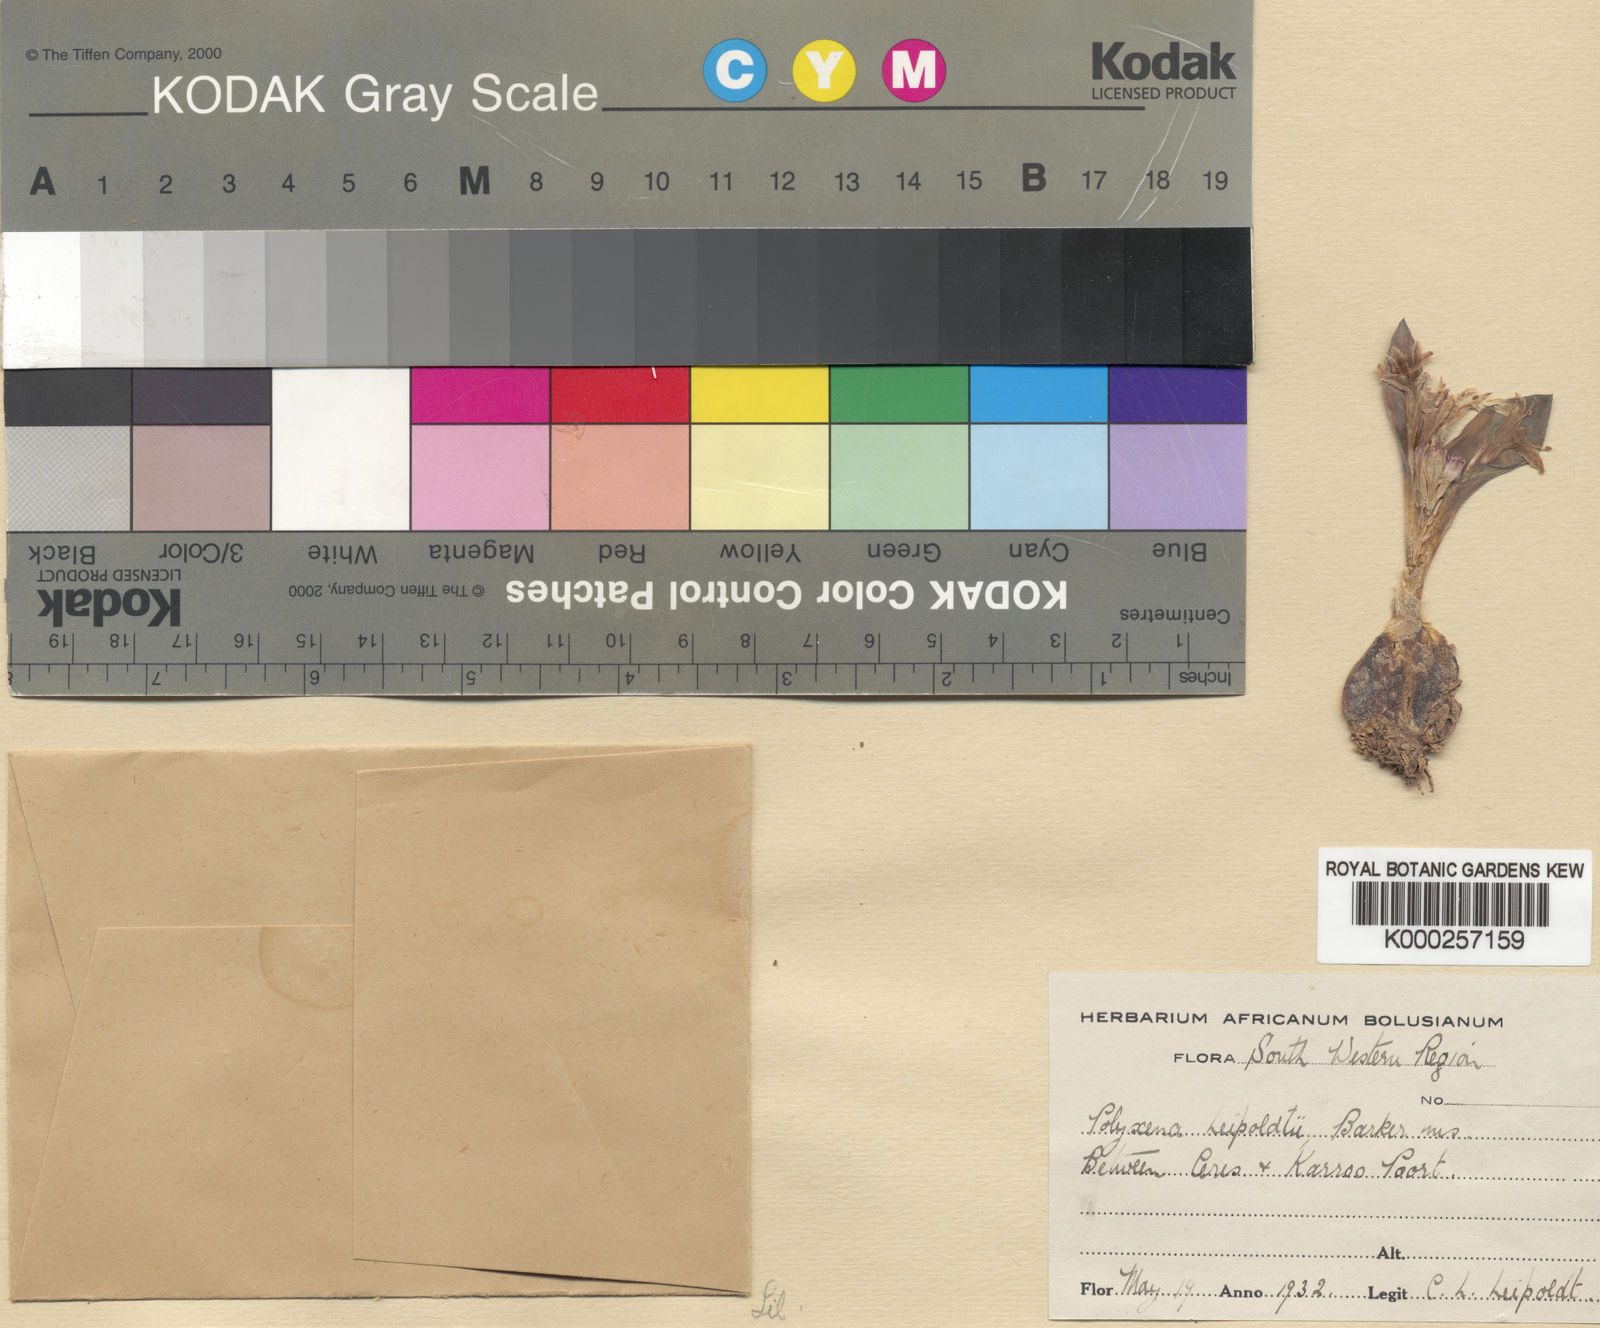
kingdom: Plantae
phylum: Tracheophyta
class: Liliopsida
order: Asparagales
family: Asparagaceae
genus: Lachenalia
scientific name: Lachenalia
